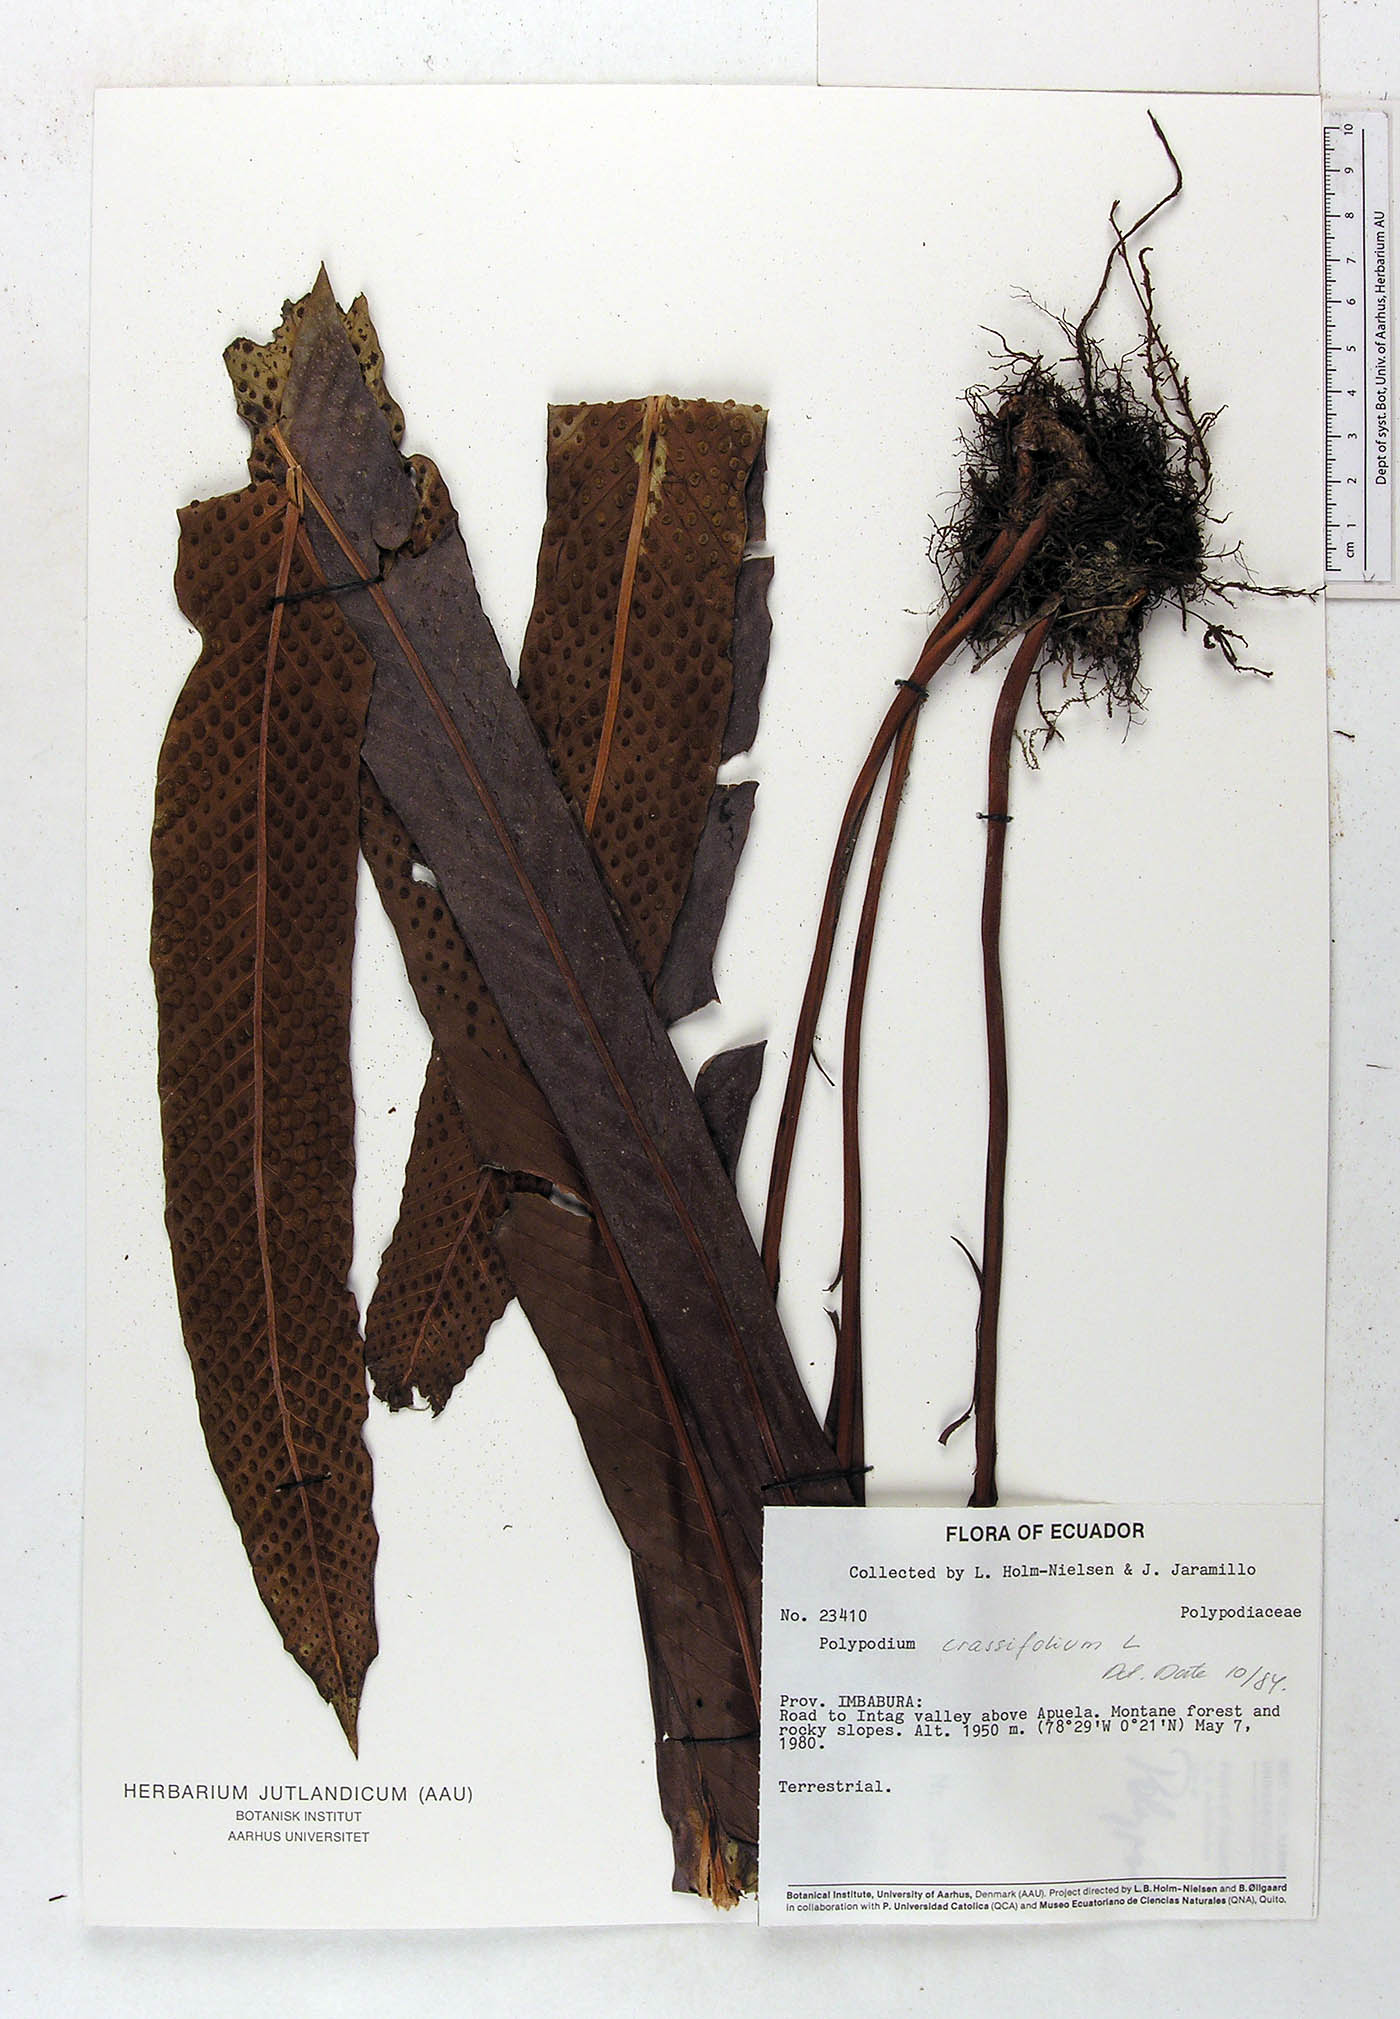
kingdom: Plantae
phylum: Tracheophyta
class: Polypodiopsida
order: Polypodiales
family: Polypodiaceae
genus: Niphidium
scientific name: Niphidium crassifolium
